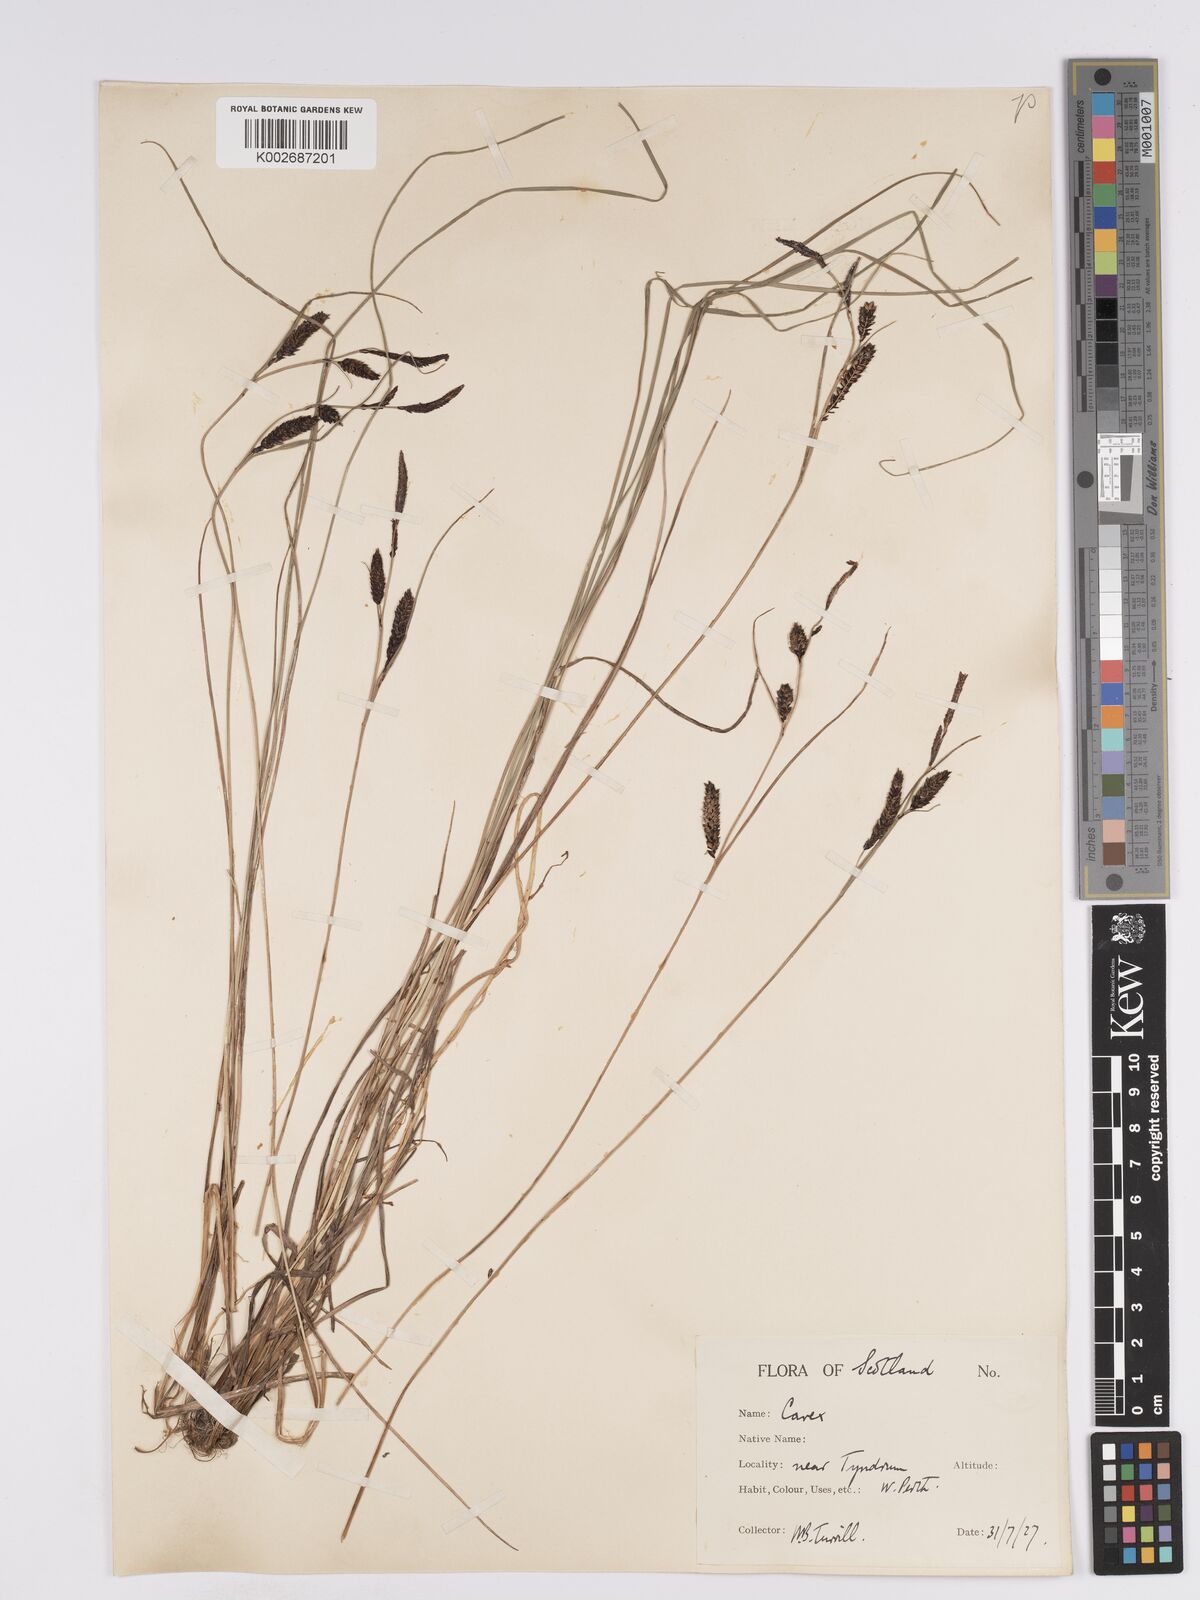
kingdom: Plantae
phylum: Tracheophyta
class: Liliopsida
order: Poales
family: Cyperaceae
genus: Carex
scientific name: Carex nigra
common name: Common sedge
